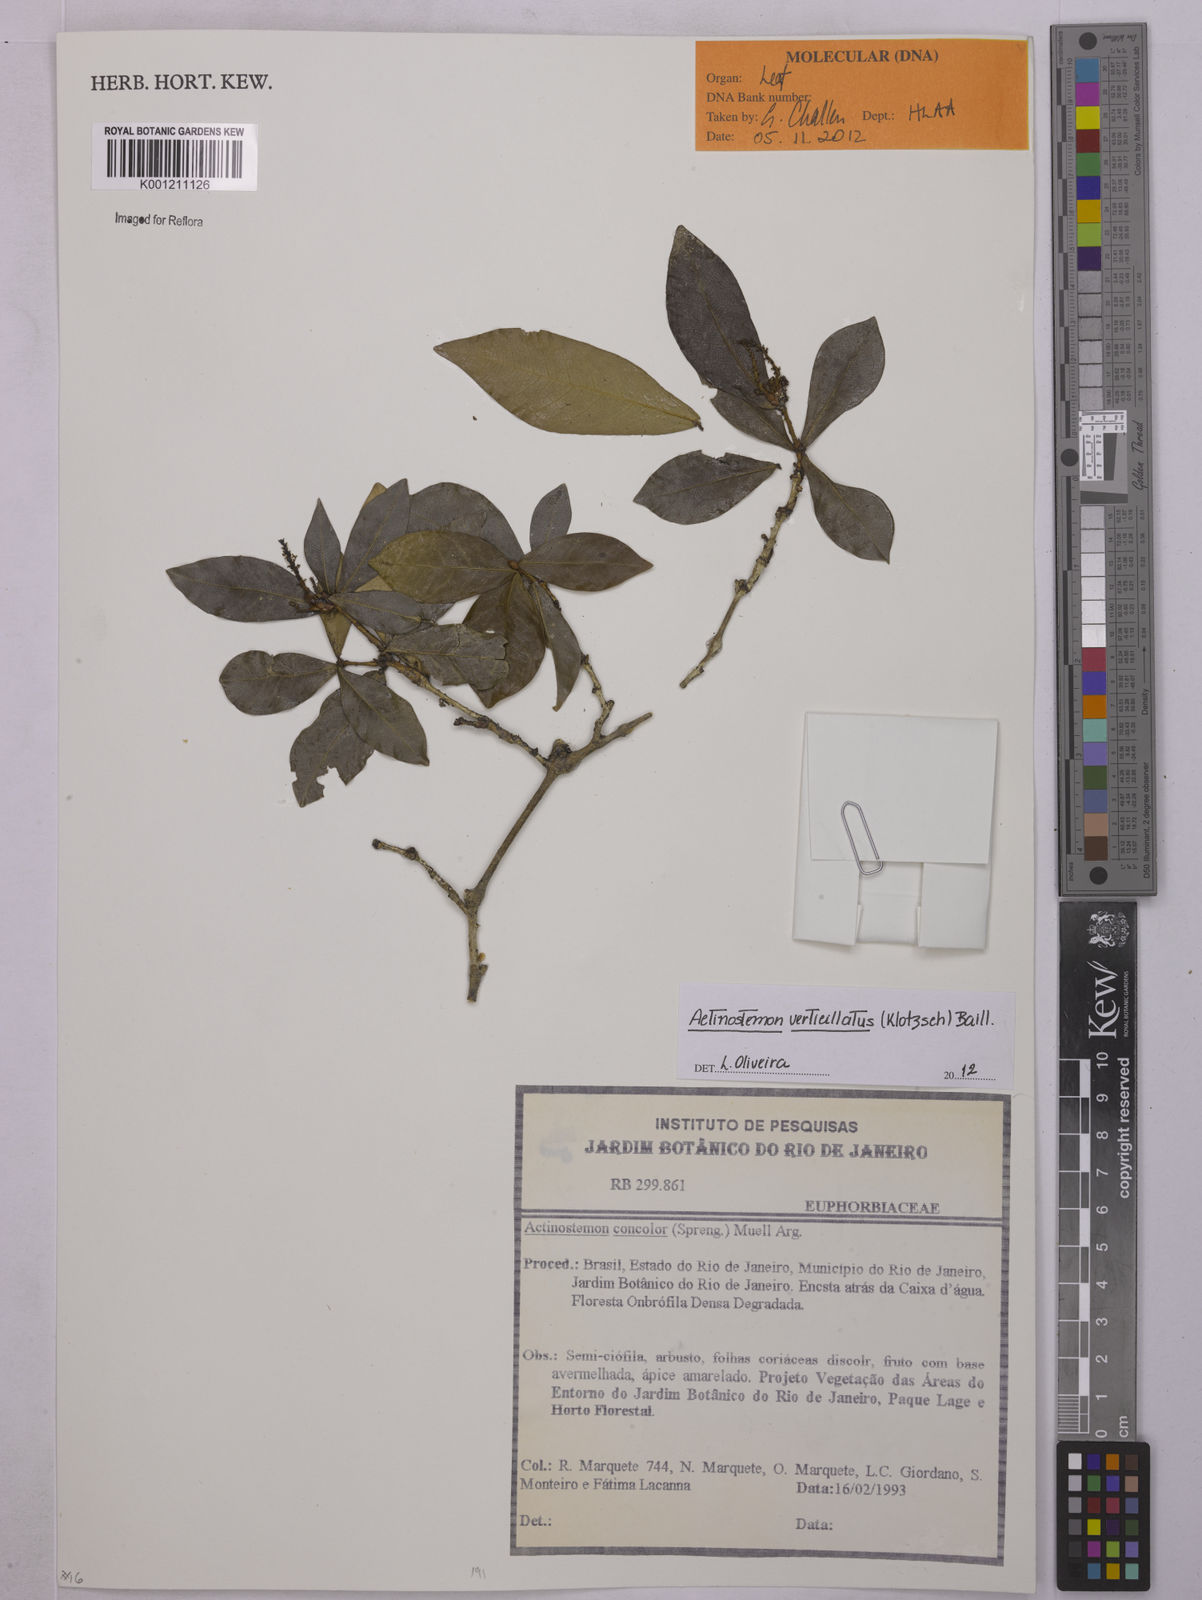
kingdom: Plantae
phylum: Tracheophyta
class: Magnoliopsida
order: Malpighiales
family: Euphorbiaceae
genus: Actinostemon
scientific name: Actinostemon verticillatus
